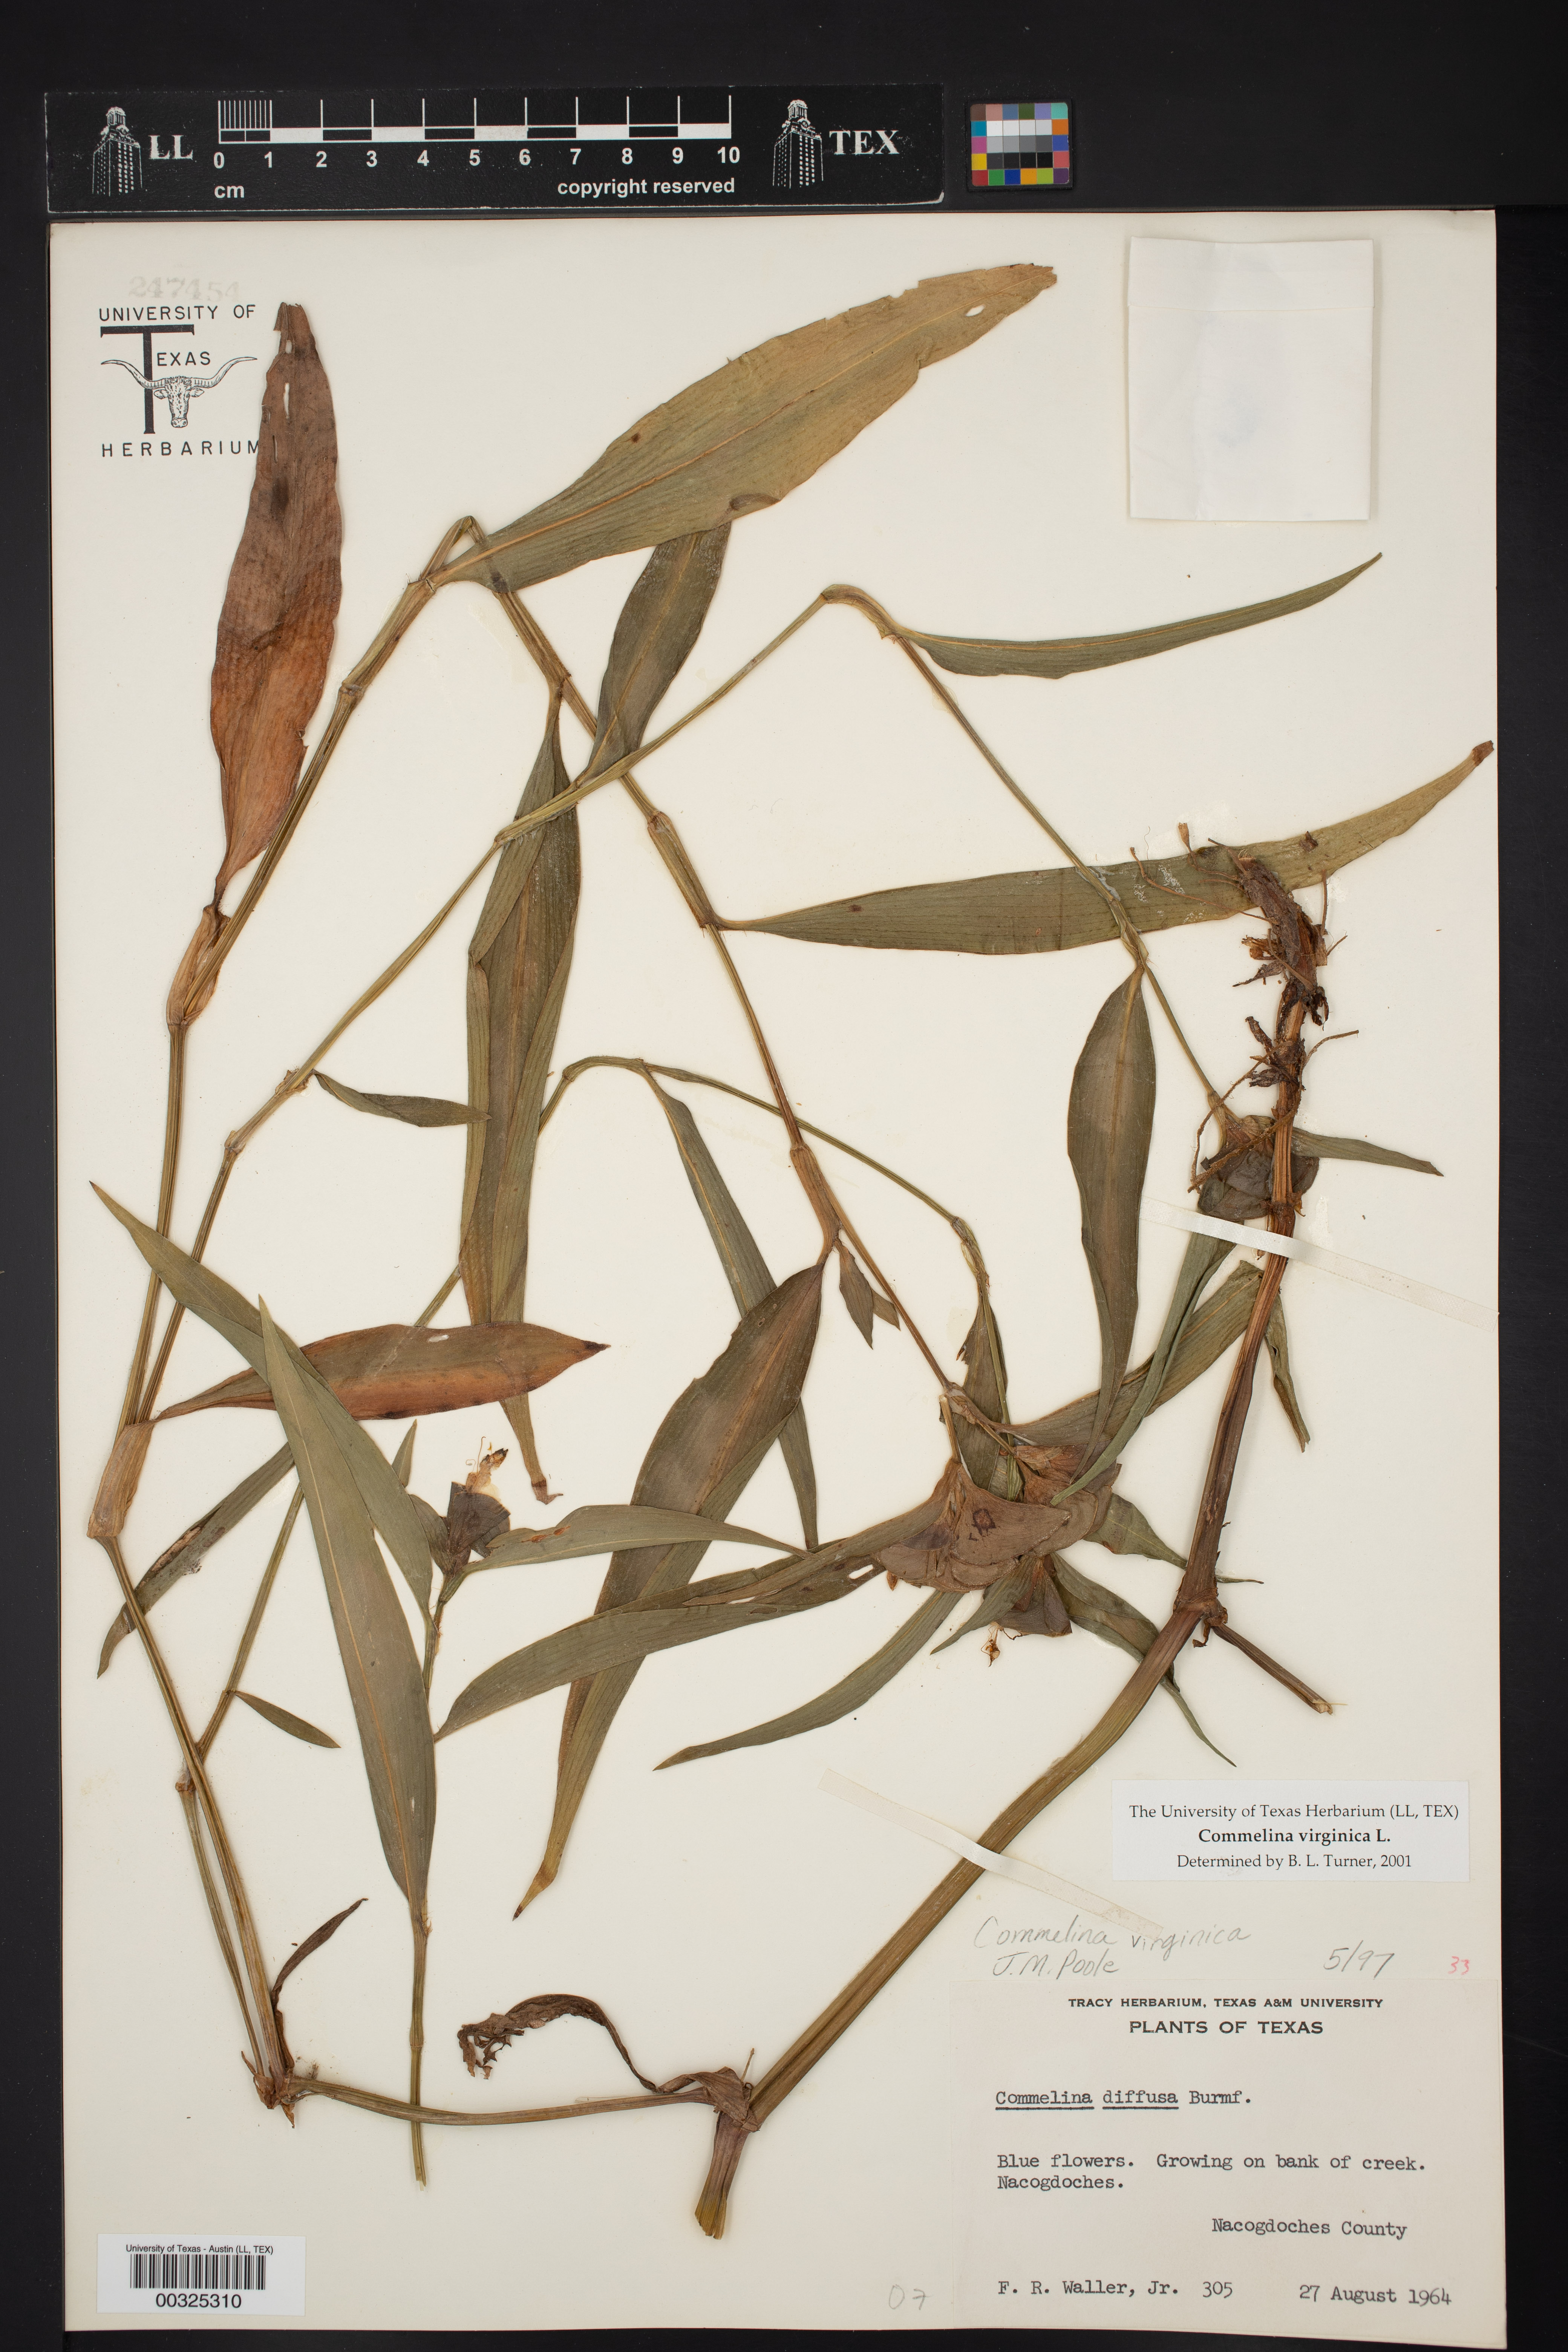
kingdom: Plantae
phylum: Tracheophyta
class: Liliopsida
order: Commelinales
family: Commelinaceae
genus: Commelina
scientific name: Commelina virginica
